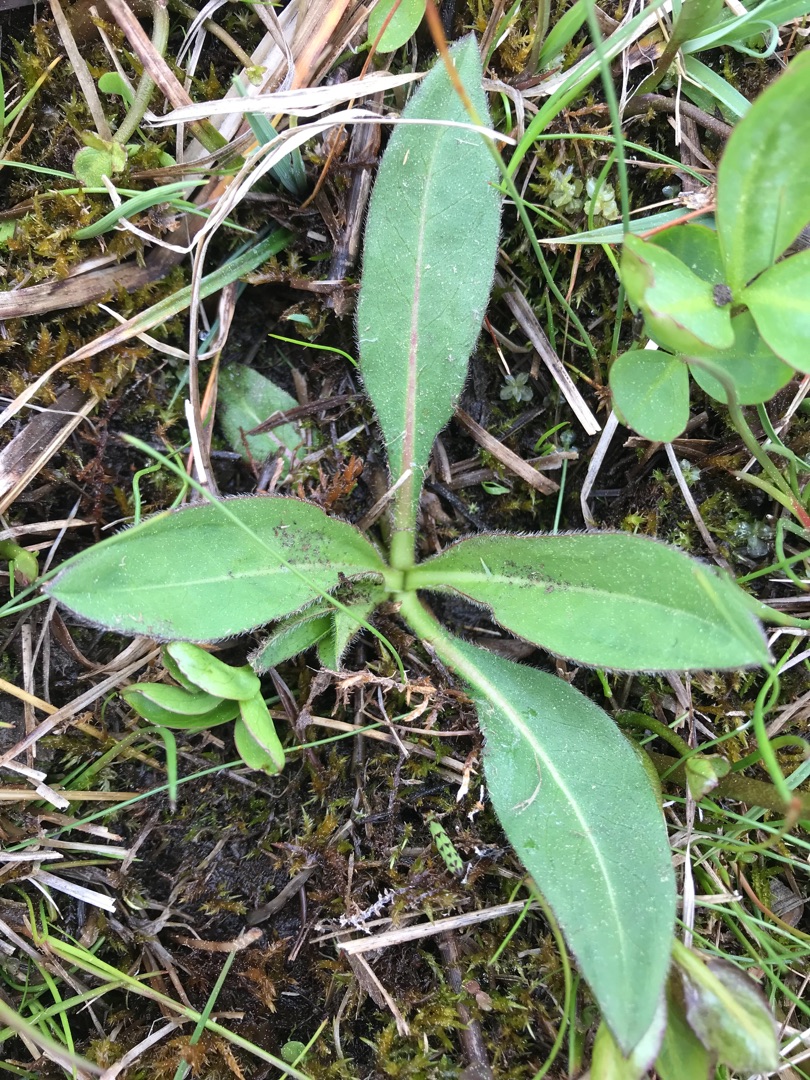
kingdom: Plantae
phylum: Tracheophyta
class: Magnoliopsida
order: Dipsacales
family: Caprifoliaceae
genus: Succisa
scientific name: Succisa pratensis
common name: Djævelsbid
